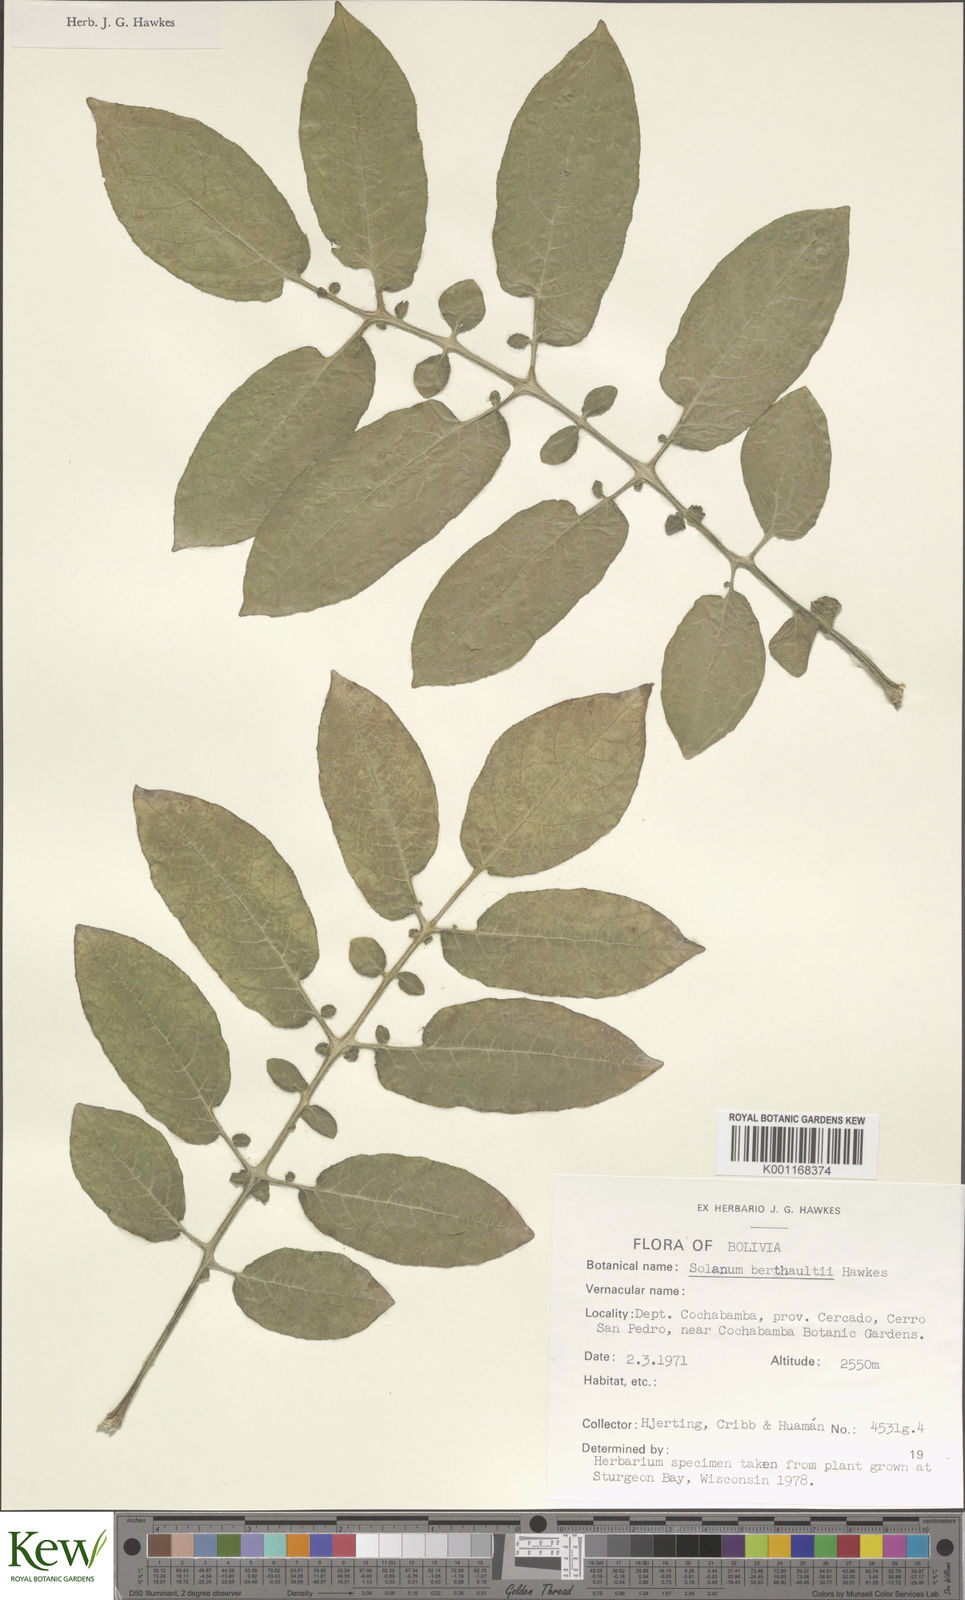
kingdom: Plantae
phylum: Tracheophyta
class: Magnoliopsida
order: Solanales
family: Solanaceae
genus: Solanum
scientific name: Solanum berthaultii
